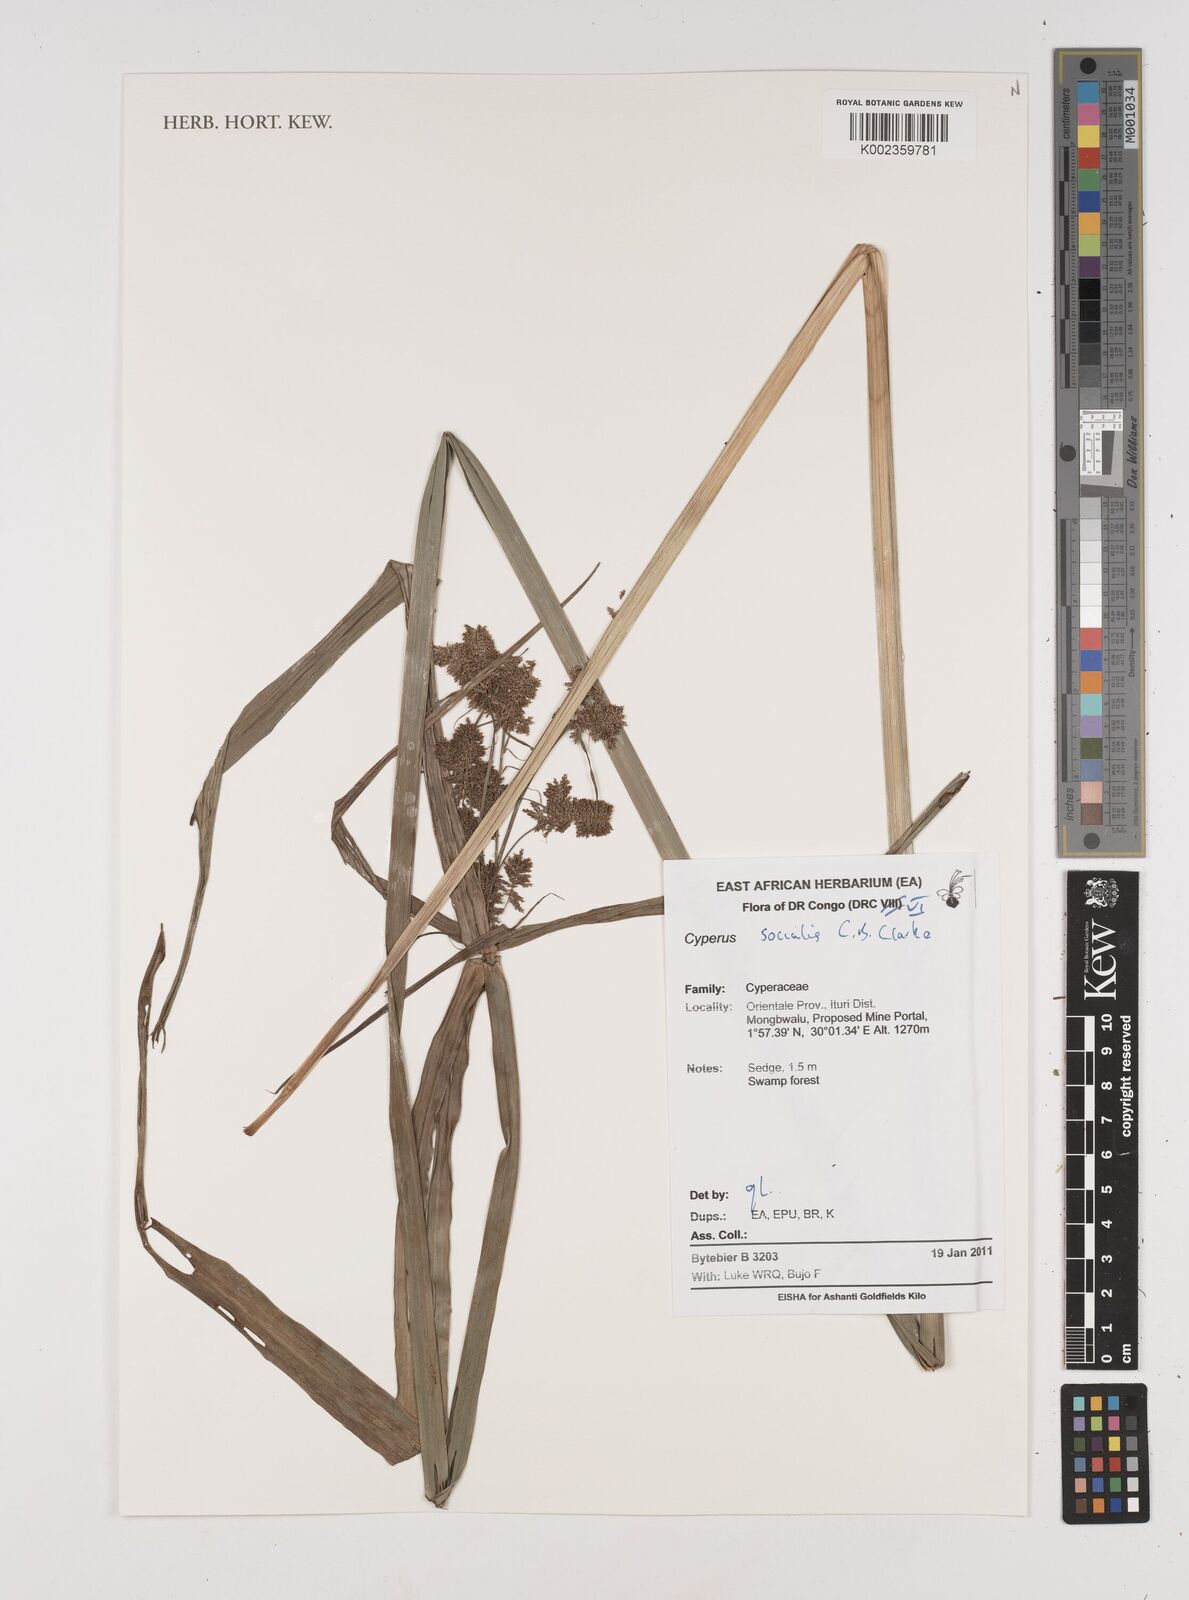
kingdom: Plantae
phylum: Tracheophyta
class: Liliopsida
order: Poales
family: Cyperaceae
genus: Cyperus
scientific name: Cyperus pseudopilosus
